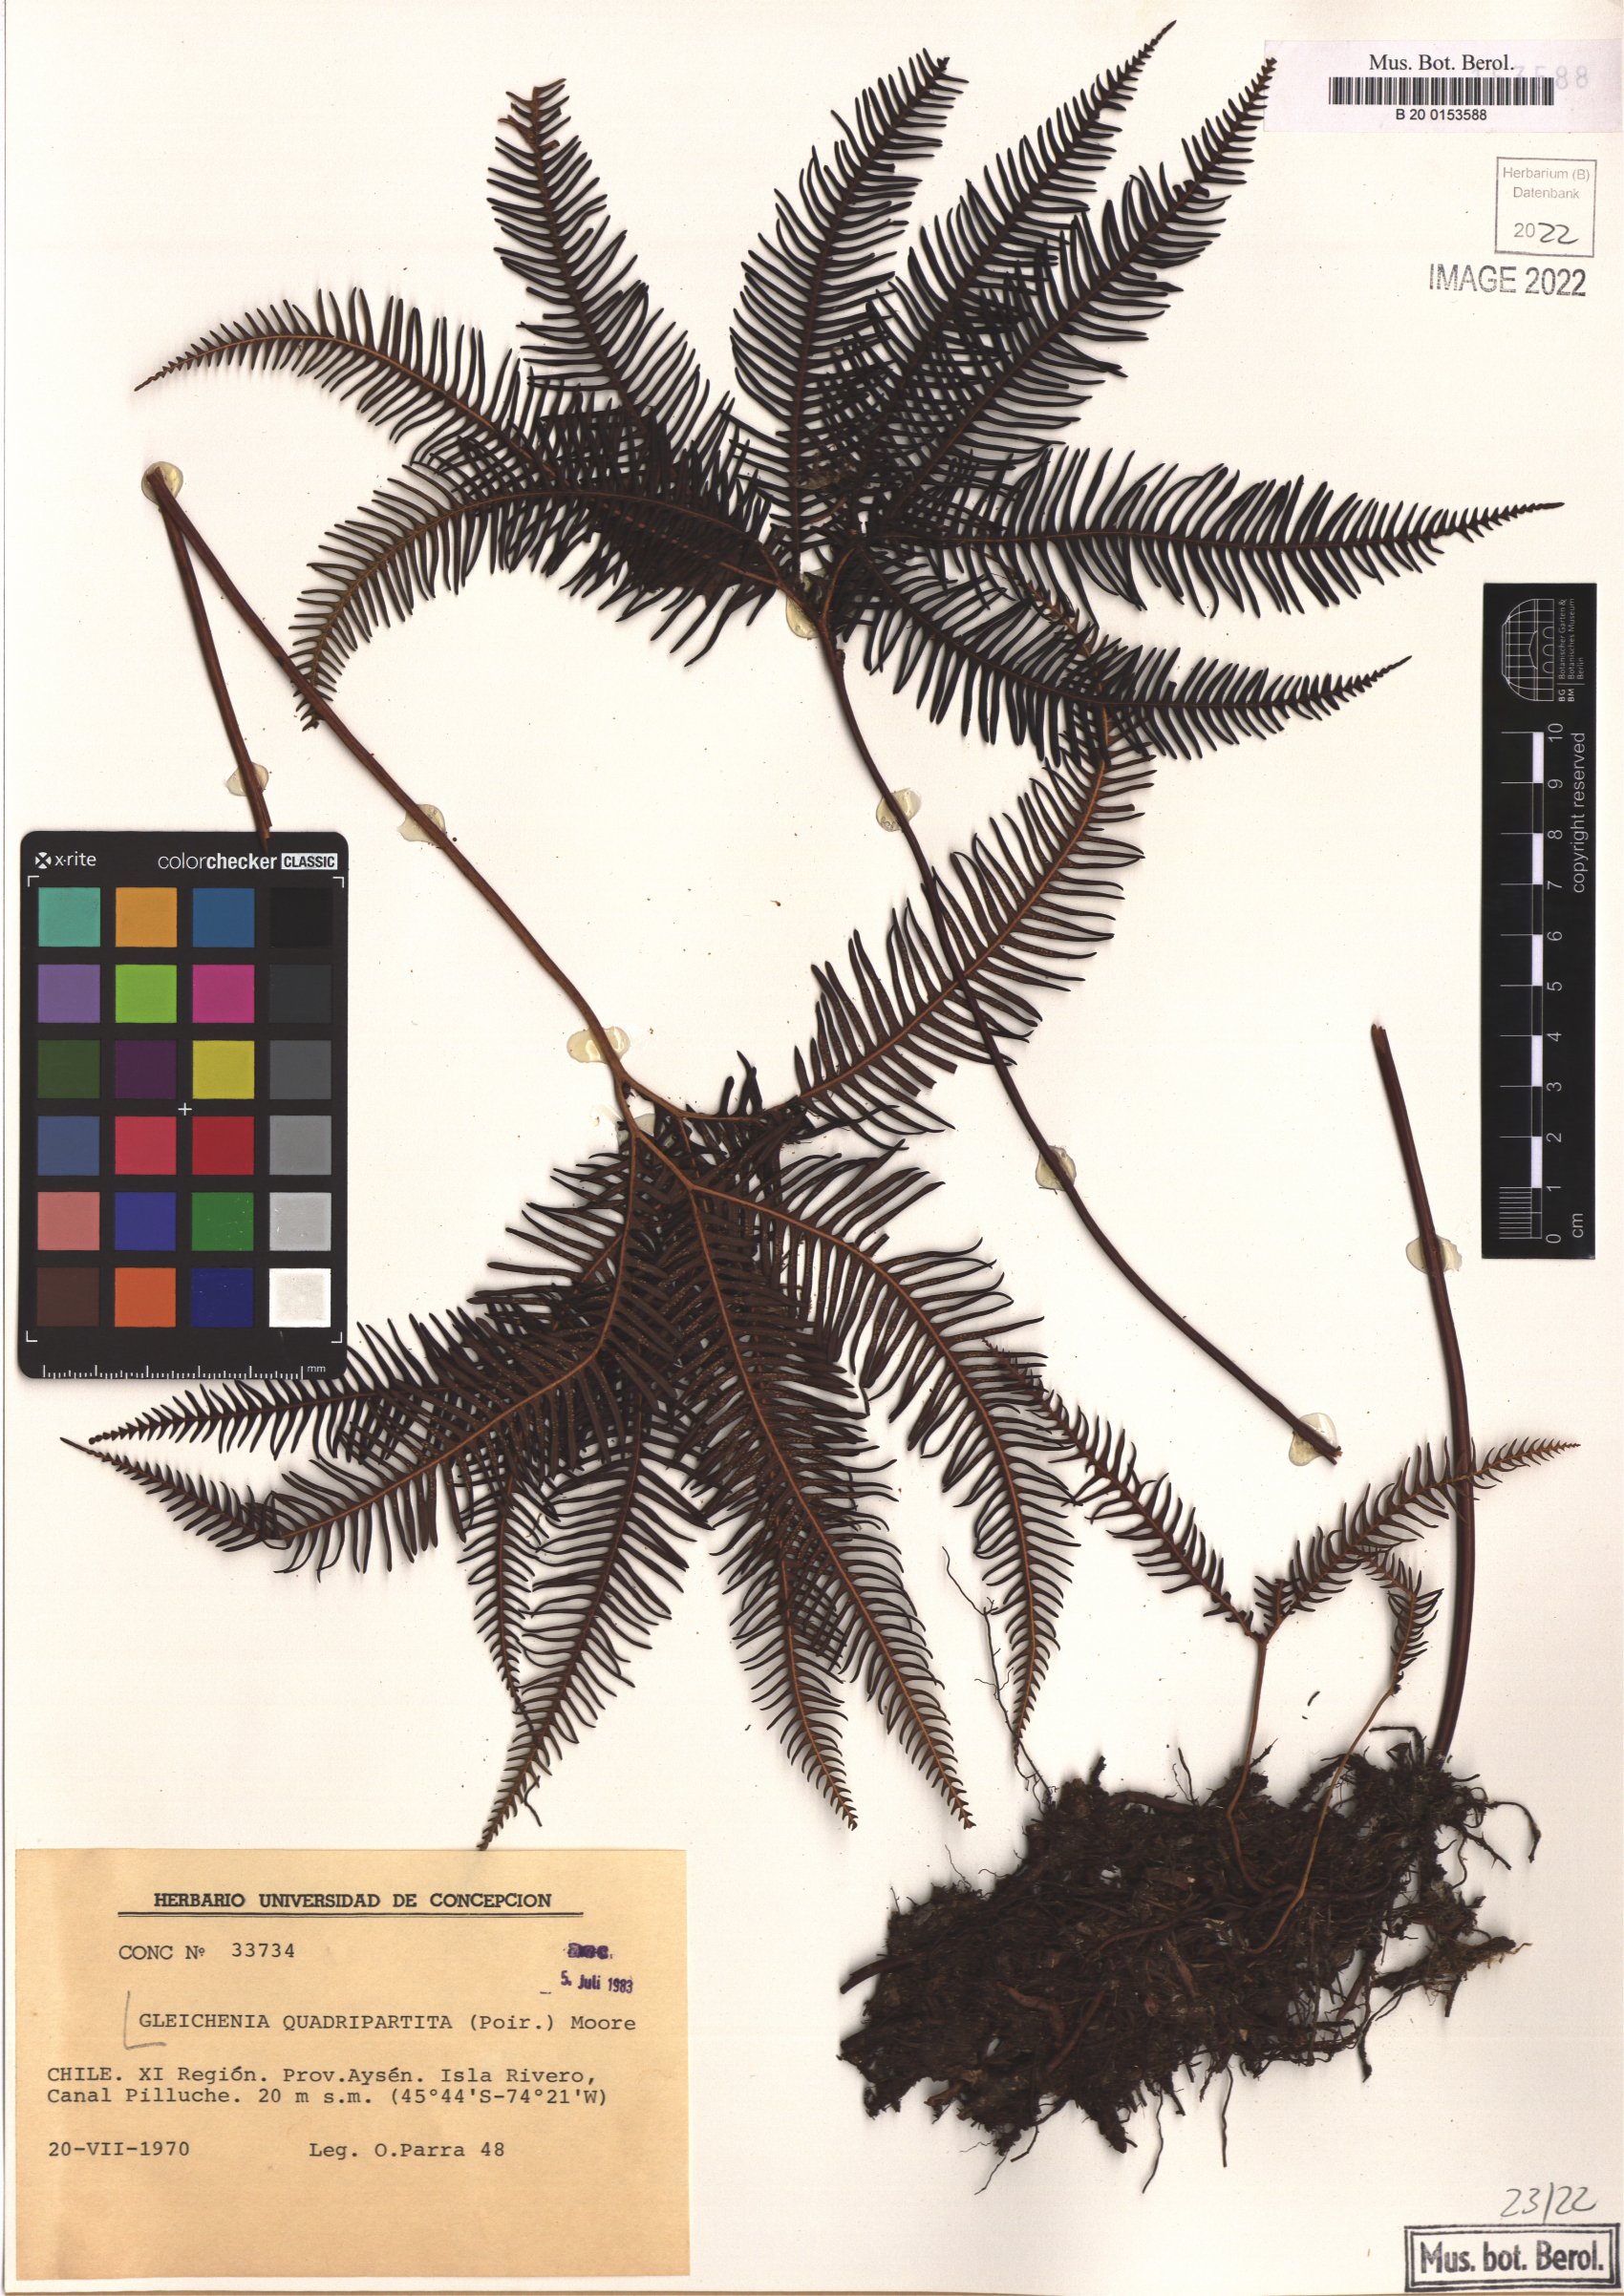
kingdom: Plantae
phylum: Tracheophyta
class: Polypodiopsida
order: Gleicheniales
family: Gleicheniaceae
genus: Sticherus
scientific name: Sticherus quadripartitus
